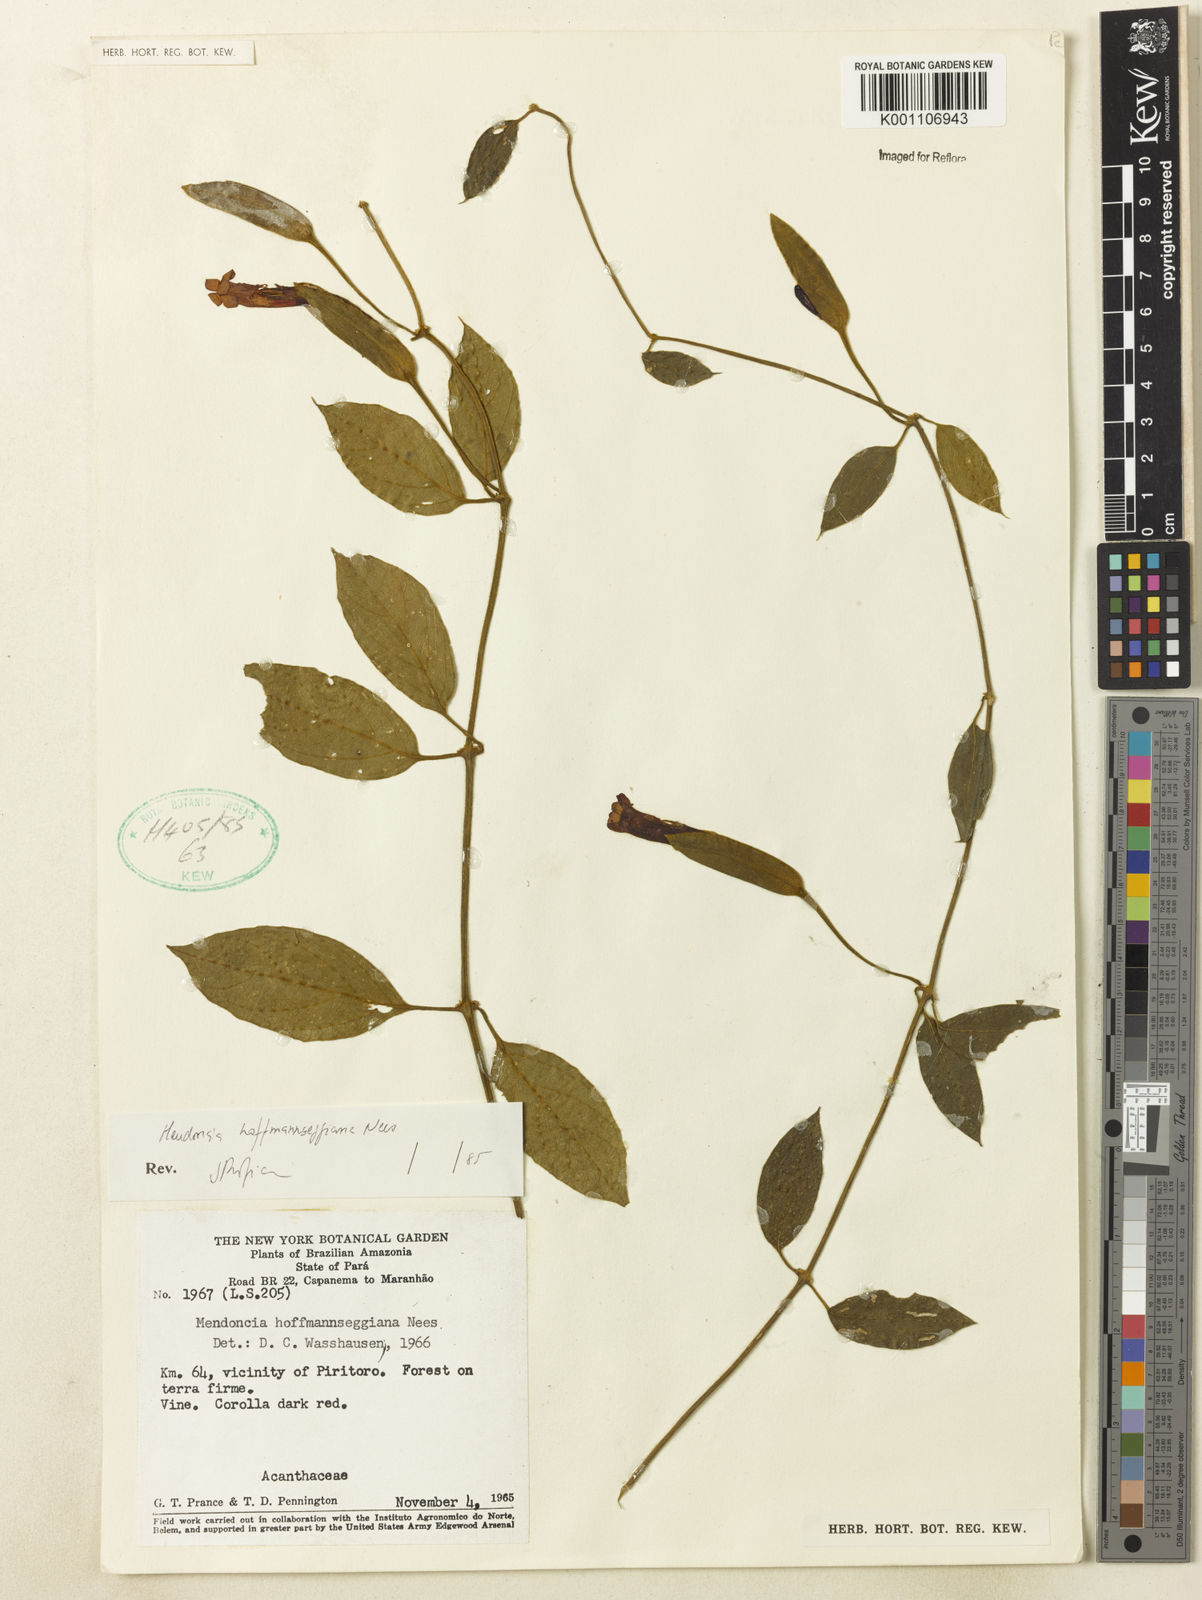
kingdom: Plantae
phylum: Tracheophyta
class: Magnoliopsida
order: Lamiales
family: Acanthaceae
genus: Mendoncia
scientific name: Mendoncia hoffmannseggiana
